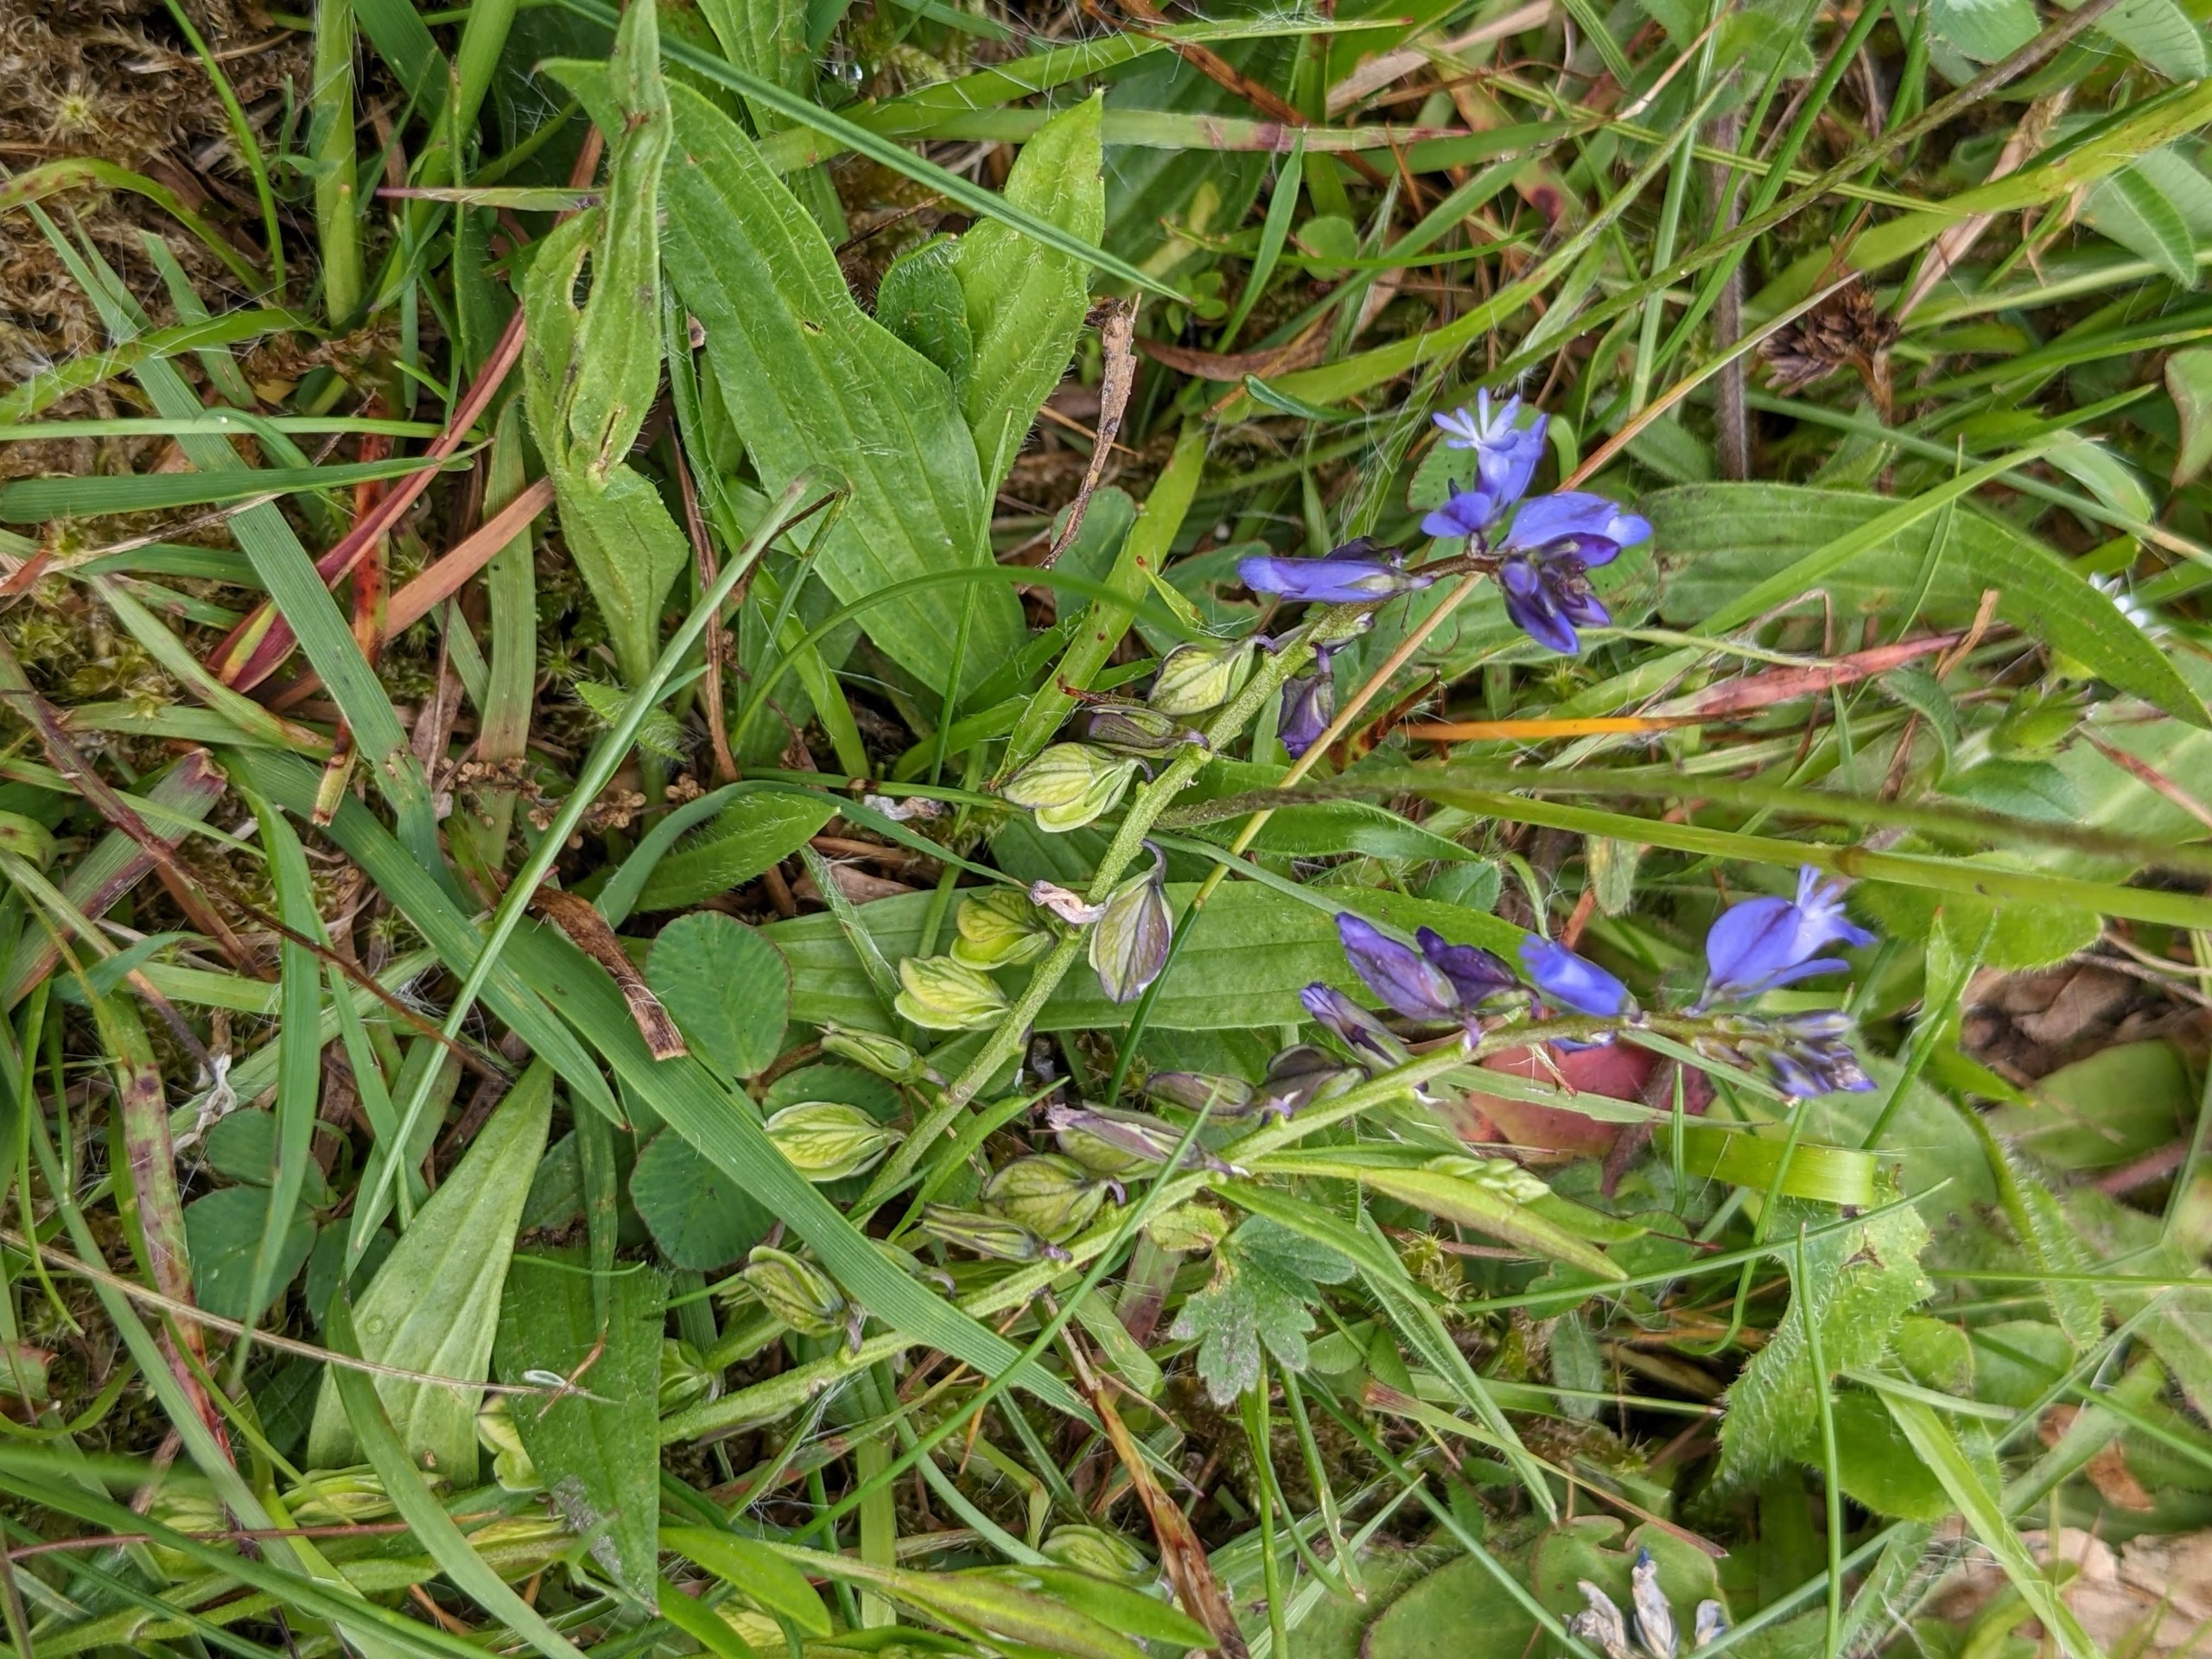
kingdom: Plantae
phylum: Tracheophyta
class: Magnoliopsida
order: Fabales
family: Polygalaceae
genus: Polygala
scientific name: Polygala vulgaris
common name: Almindelig mælkeurt
